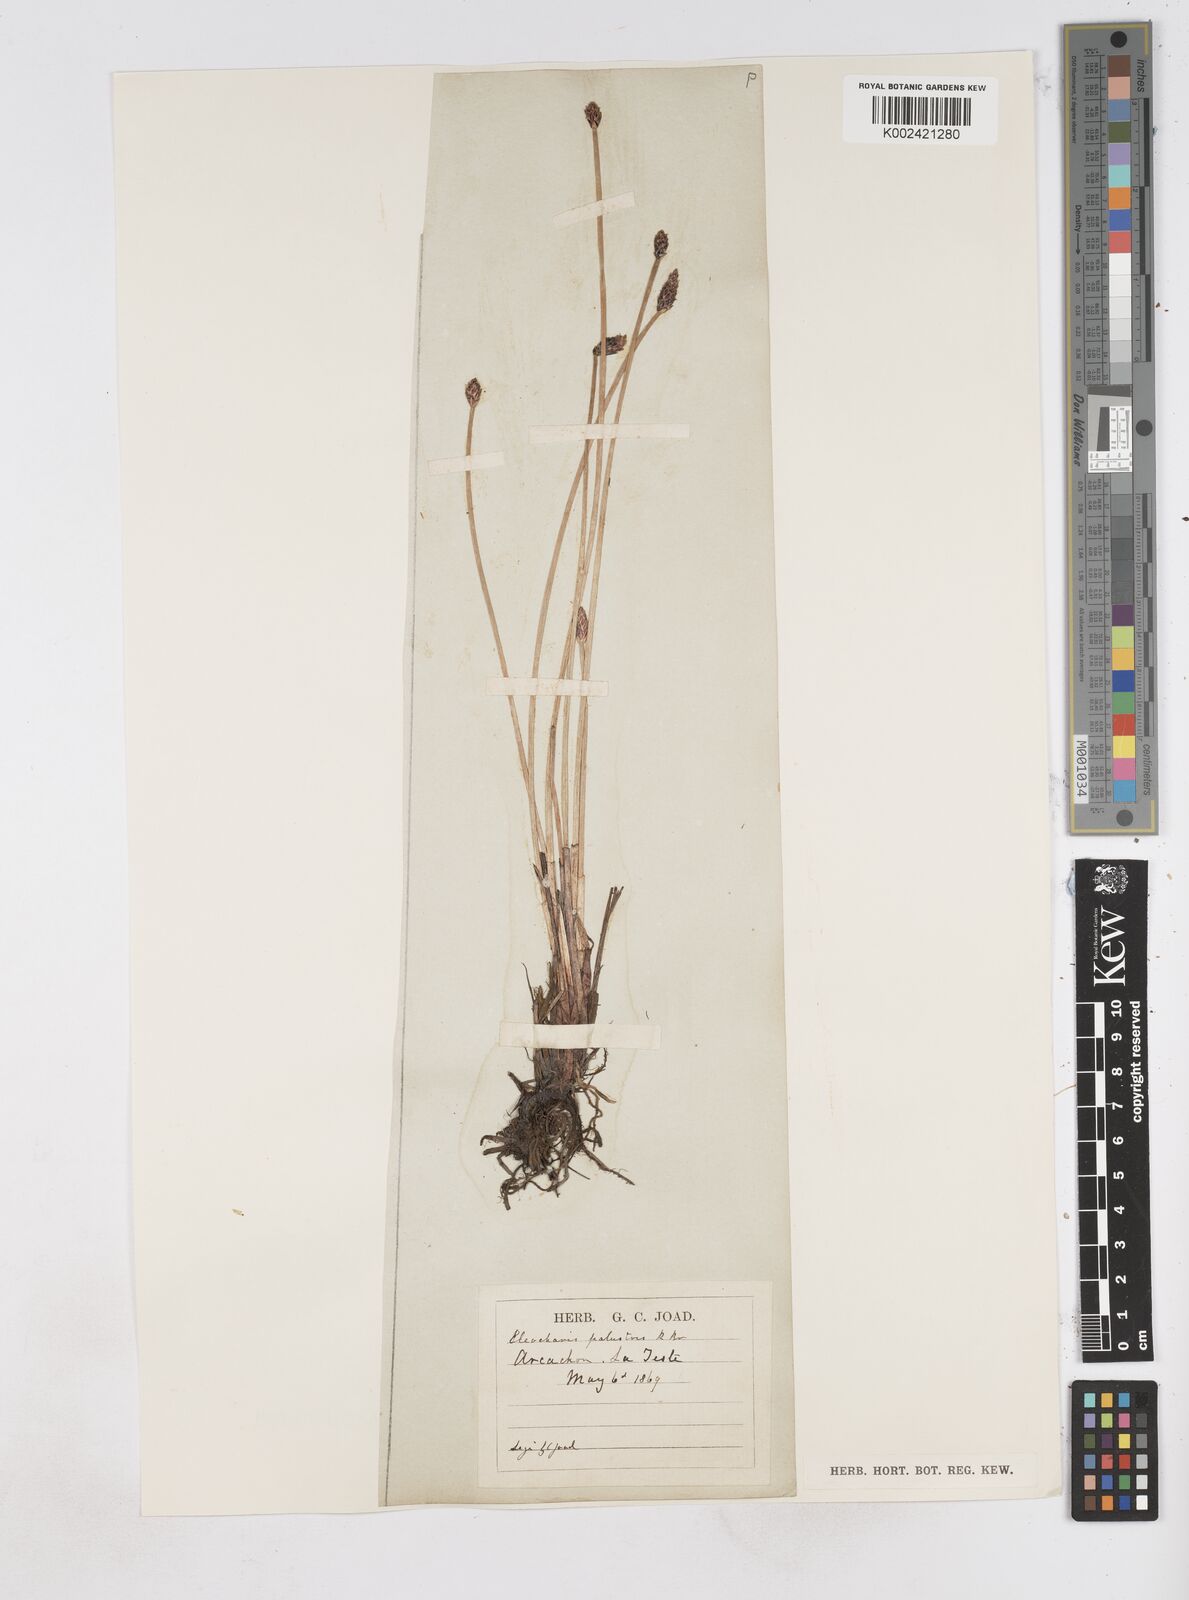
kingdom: Plantae
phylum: Tracheophyta
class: Liliopsida
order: Poales
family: Cyperaceae
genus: Eleocharis
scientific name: Eleocharis palustris
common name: Common spike-rush
